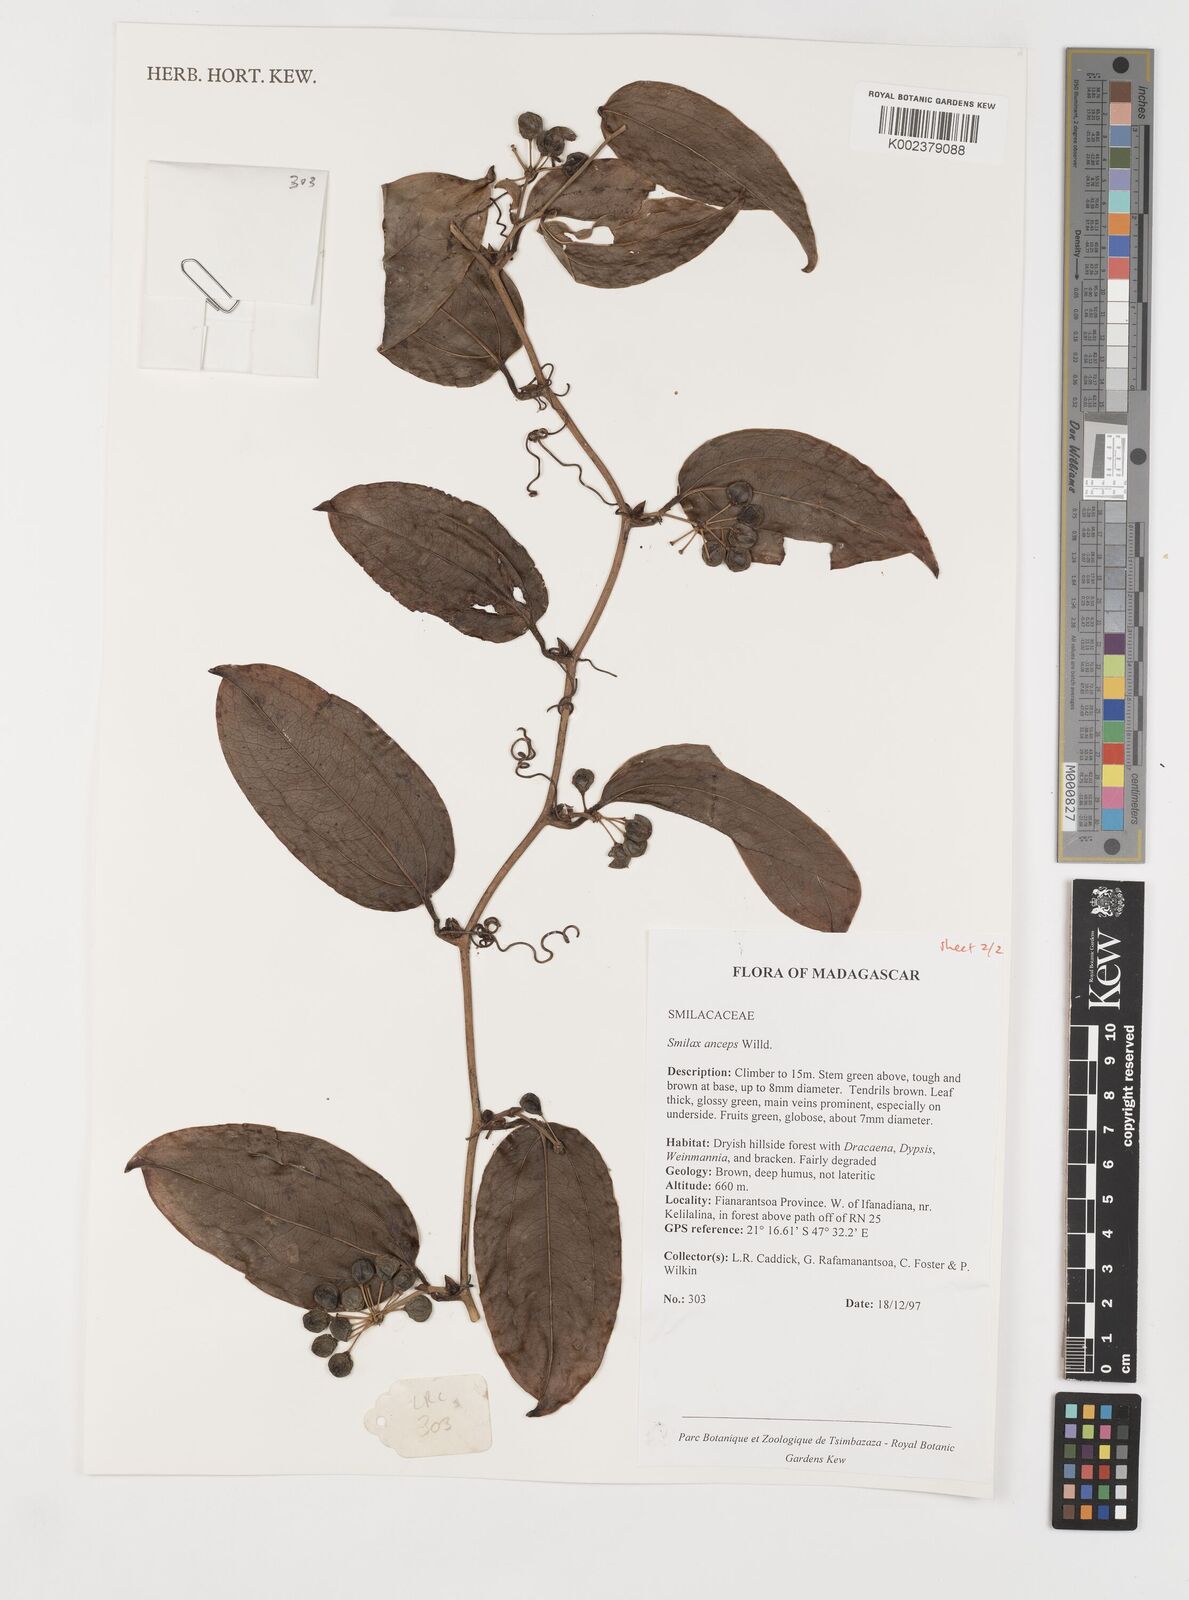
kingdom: Plantae
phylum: Tracheophyta
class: Liliopsida
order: Liliales
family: Smilacaceae
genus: Smilax
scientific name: Smilax anceps
